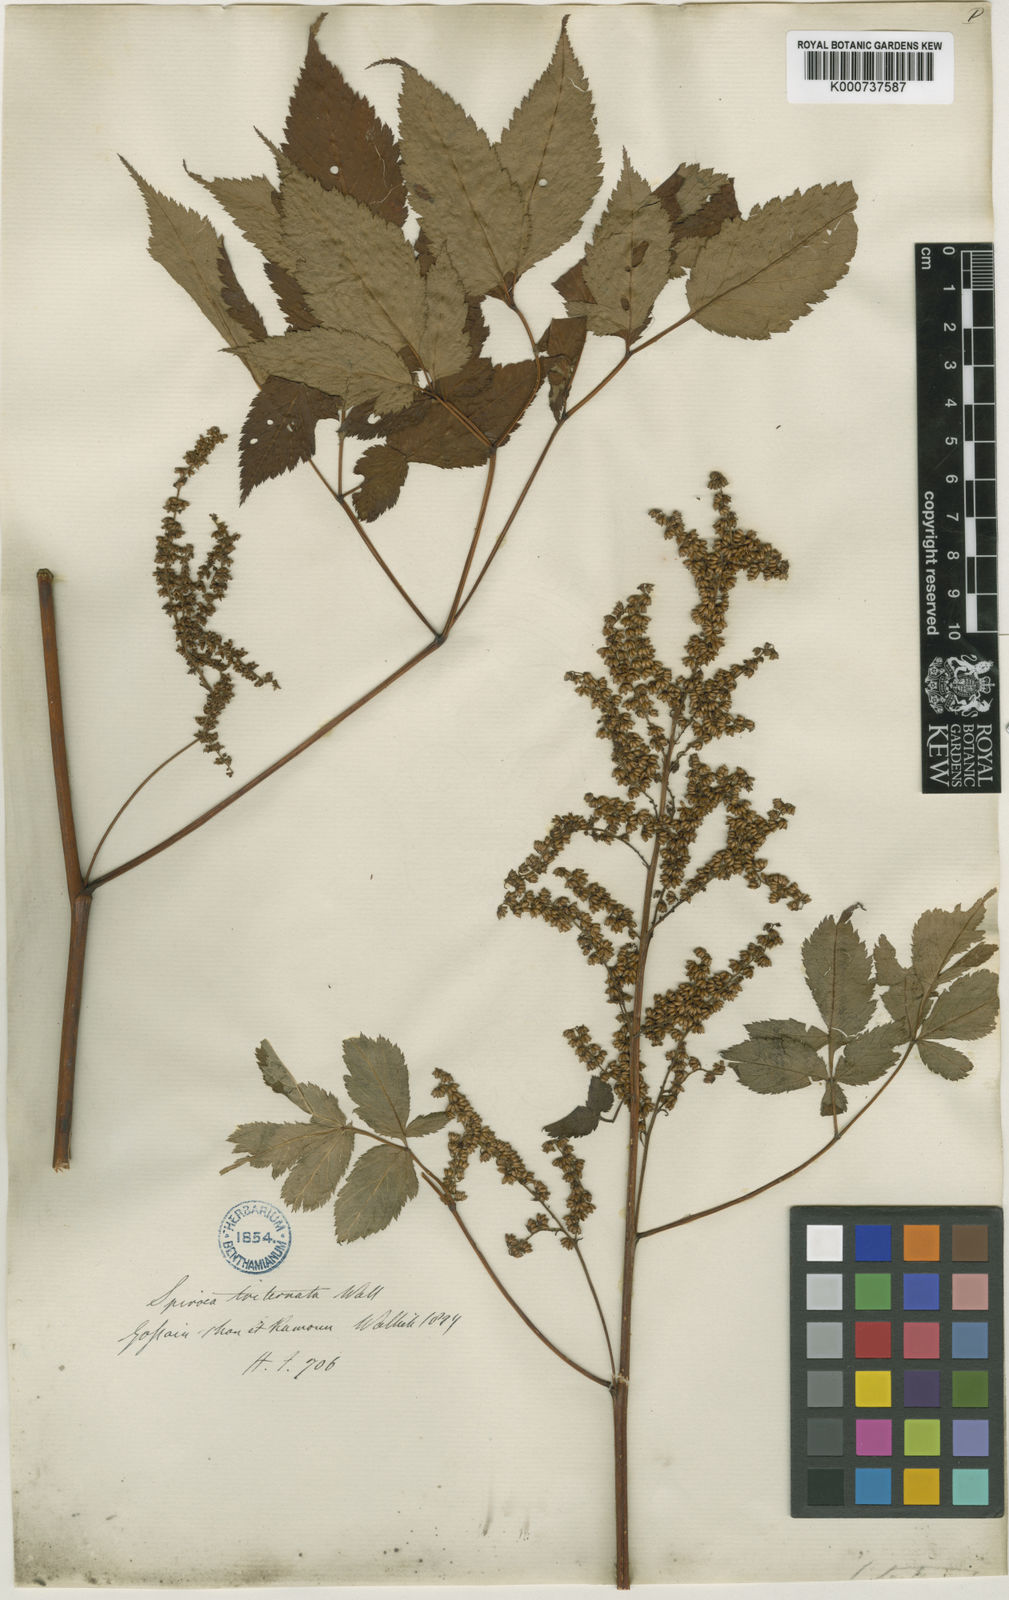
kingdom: Plantae
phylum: Tracheophyta
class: Magnoliopsida
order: Rosales
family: Rosaceae
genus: Aruncus
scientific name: Aruncus sylvester
